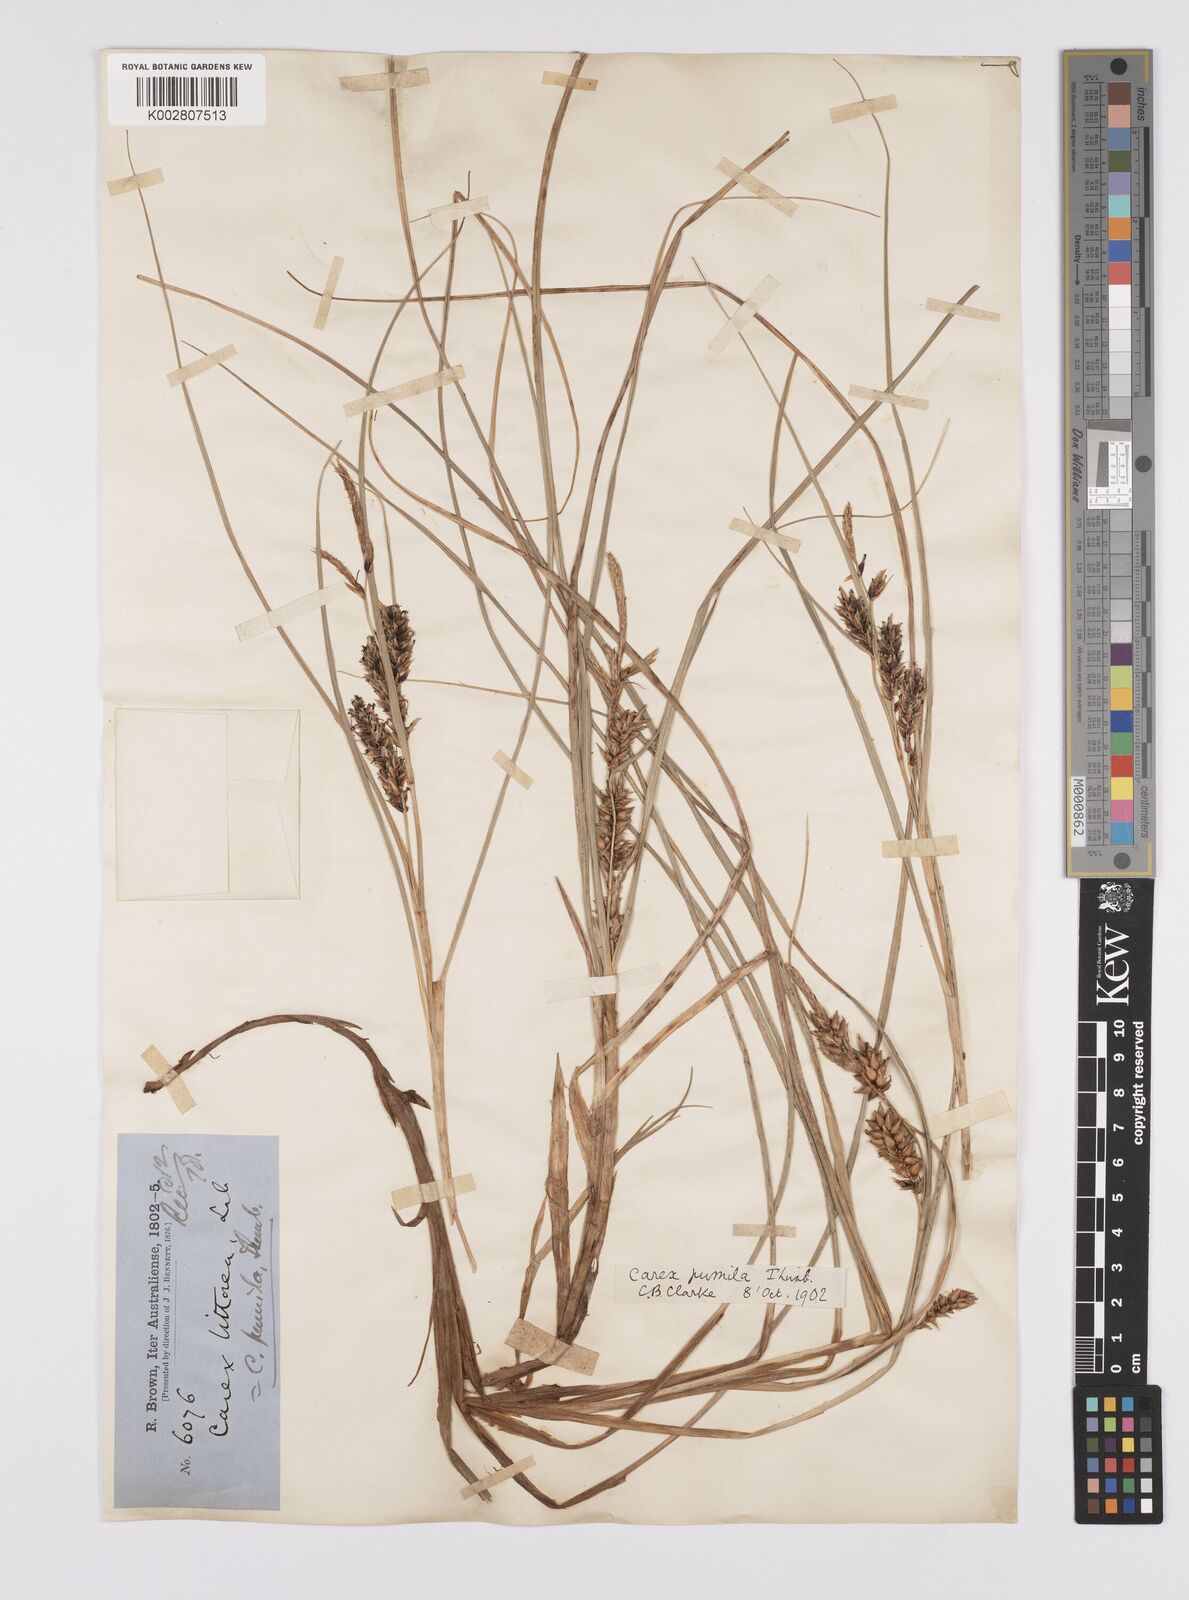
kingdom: Plantae
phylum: Tracheophyta
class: Liliopsida
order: Poales
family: Cyperaceae
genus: Carex
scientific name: Carex pumila
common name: Dwarf sedge
